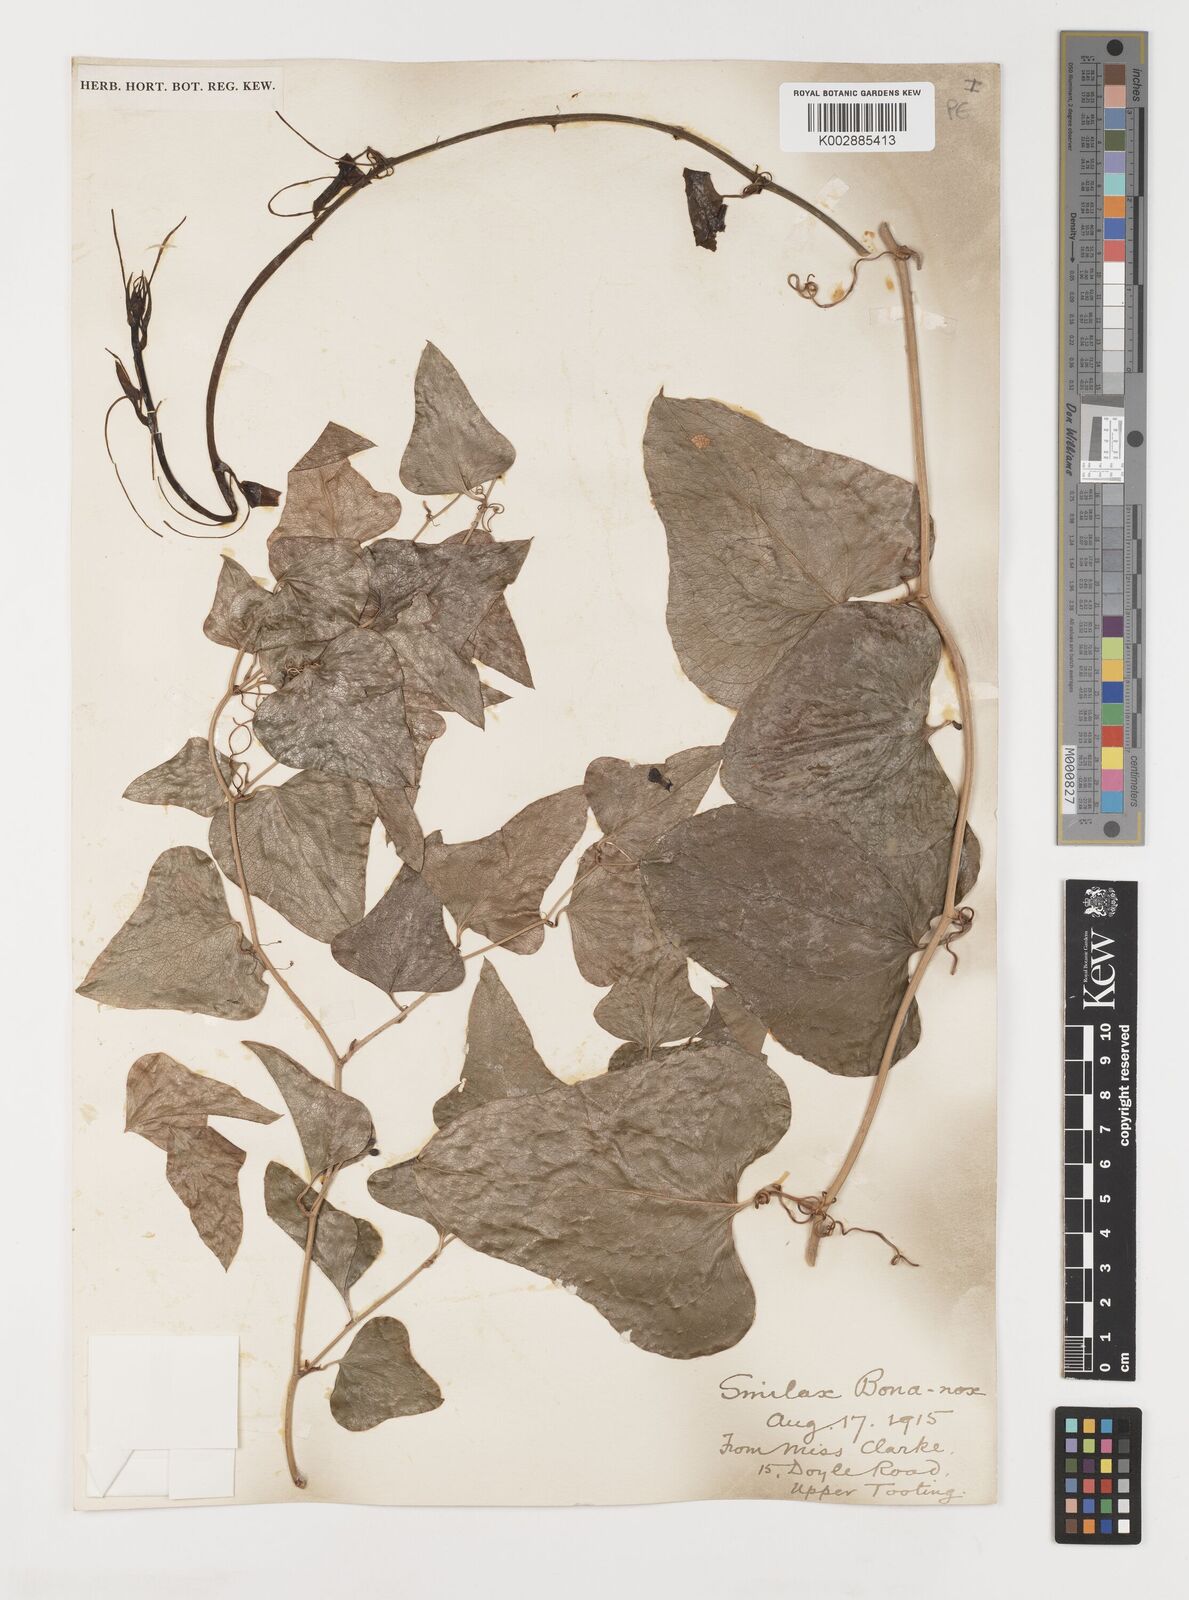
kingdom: Plantae
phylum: Tracheophyta
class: Liliopsida
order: Liliales
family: Smilacaceae
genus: Smilax
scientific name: Smilax bona-nox
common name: Catbrier
